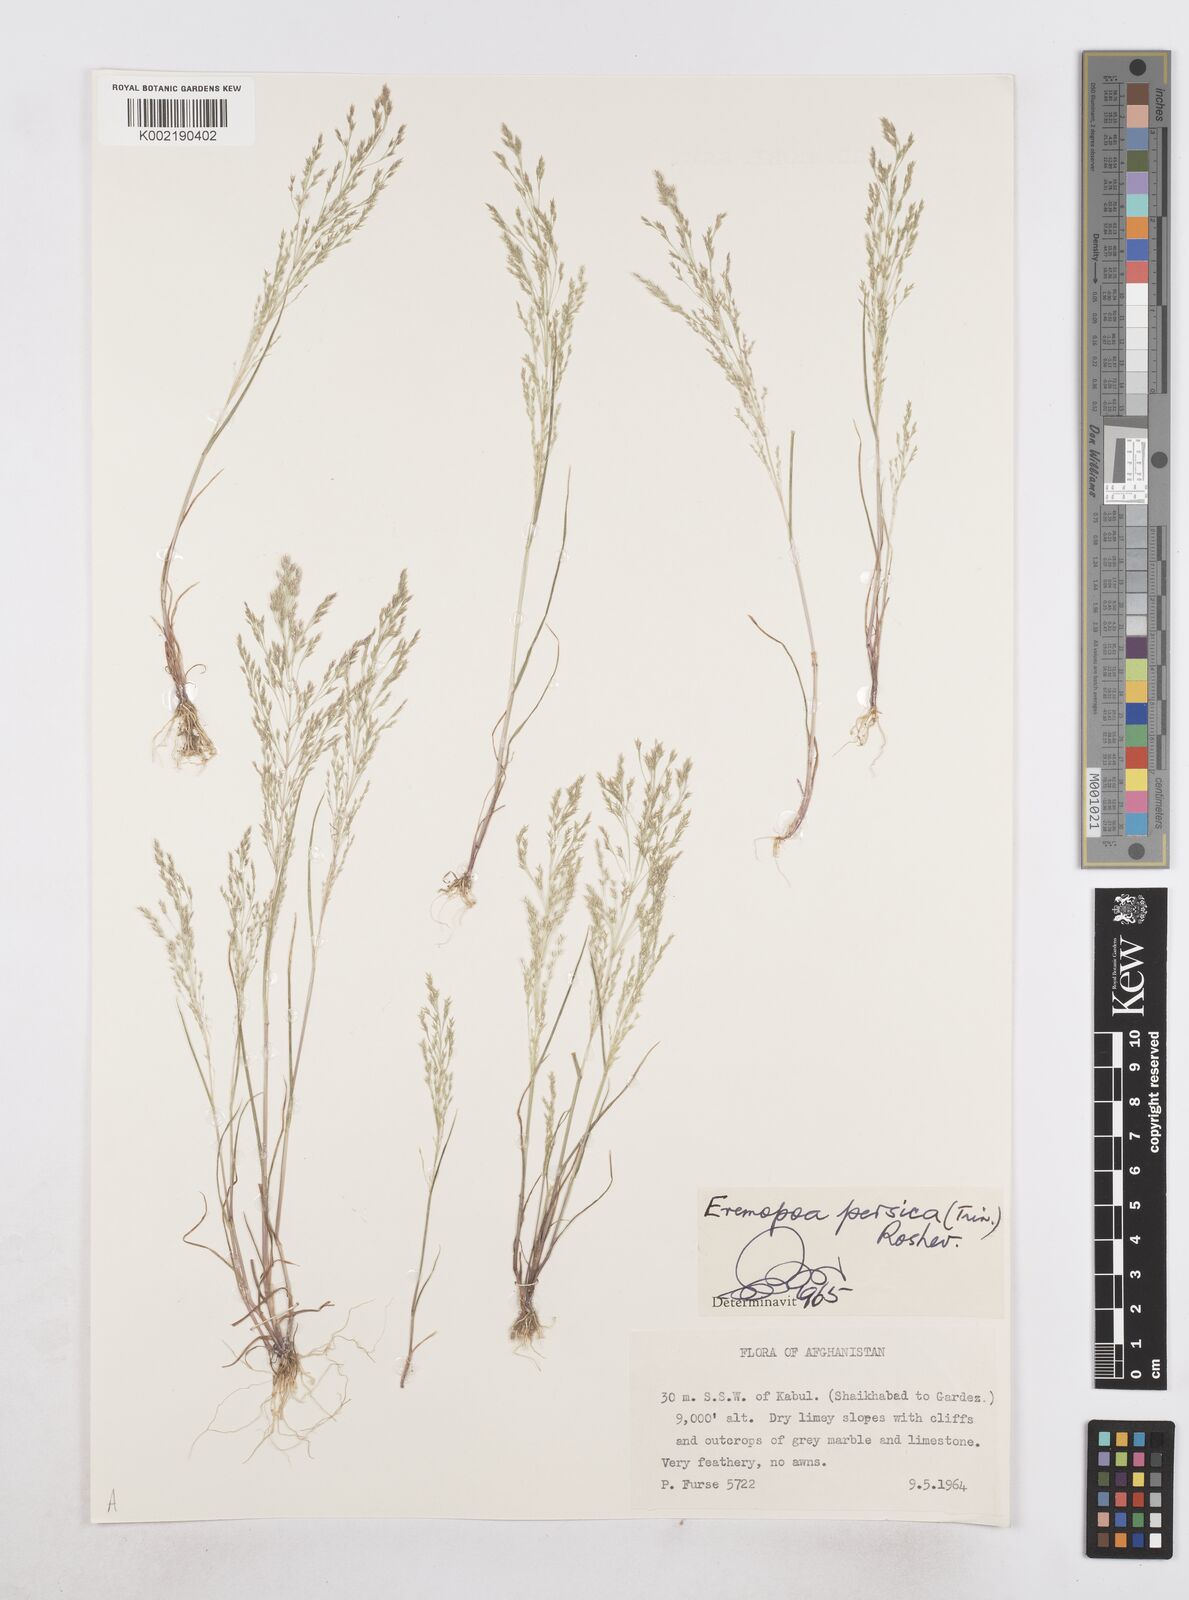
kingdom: Plantae
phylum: Tracheophyta
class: Liliopsida
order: Poales
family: Poaceae
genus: Poa
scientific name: Poa diaphora
